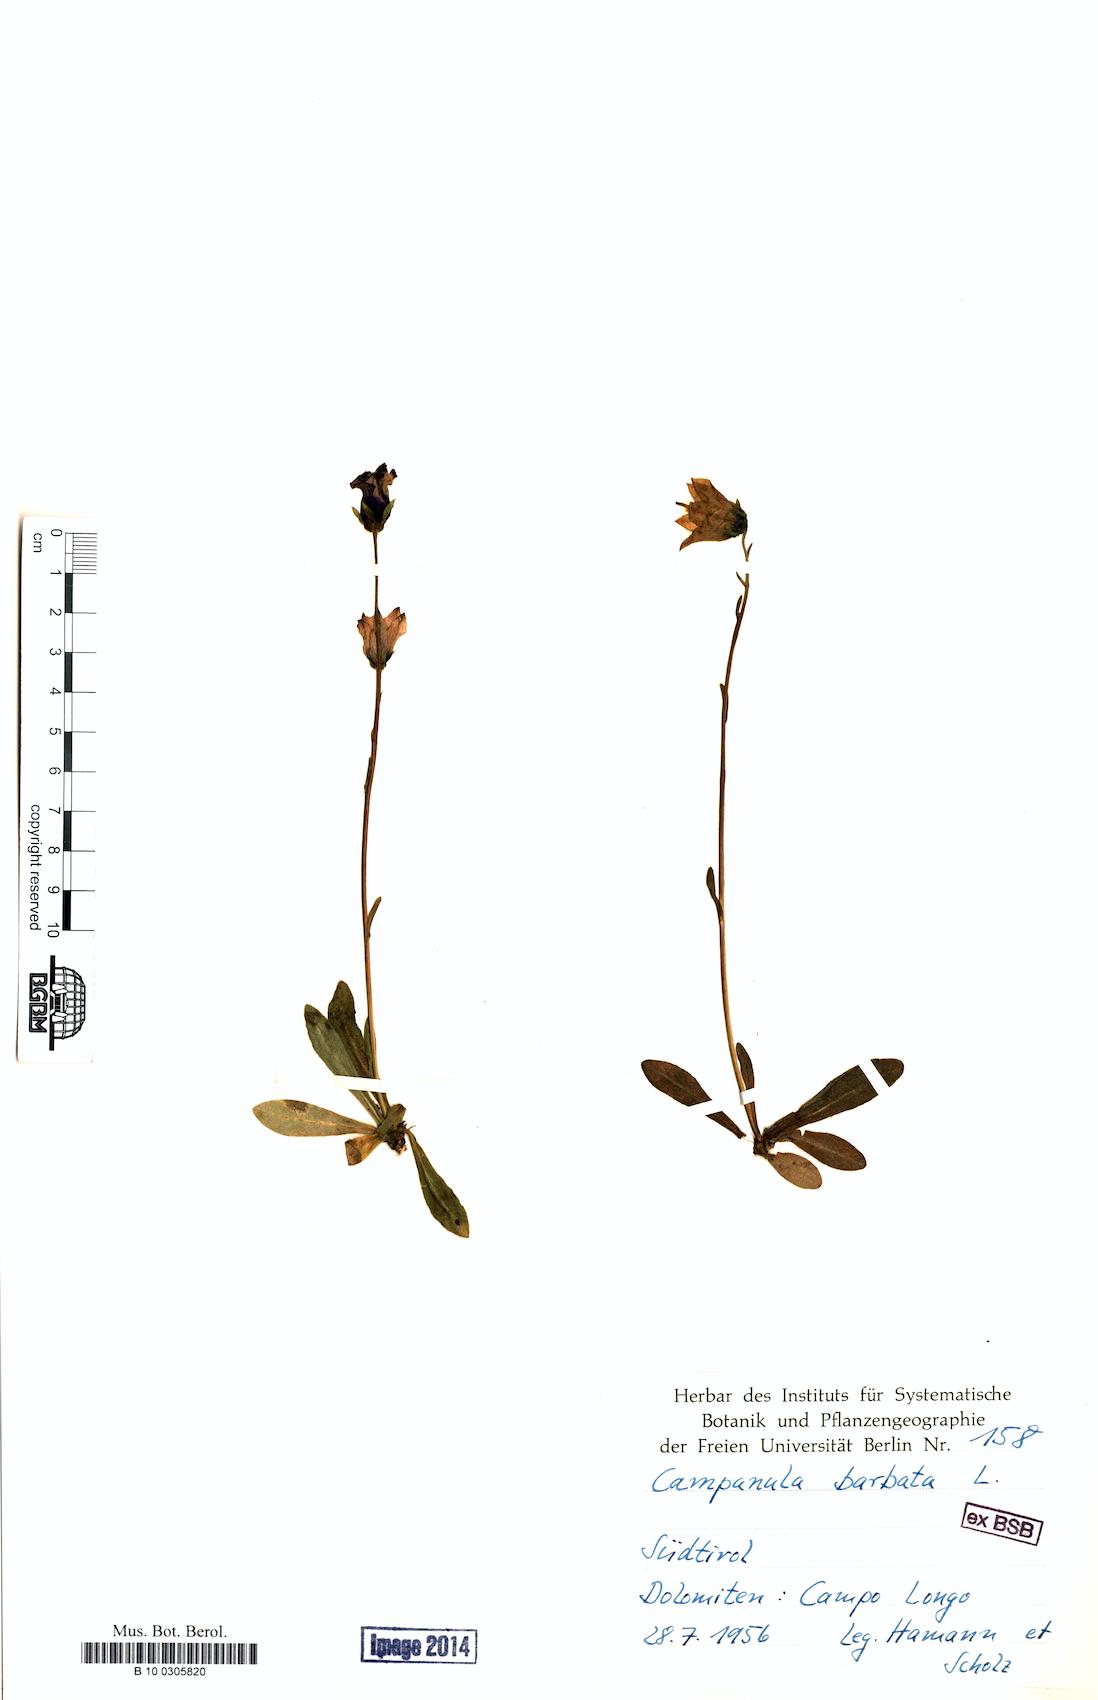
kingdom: Plantae
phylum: Tracheophyta
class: Magnoliopsida
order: Asterales
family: Campanulaceae
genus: Campanula
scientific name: Campanula barbata
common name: Bearded bellflower
